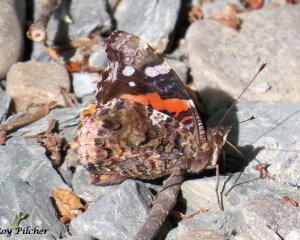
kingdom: Animalia
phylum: Arthropoda
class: Insecta
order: Lepidoptera
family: Nymphalidae
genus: Vanessa
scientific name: Vanessa atalanta
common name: Red Admiral
